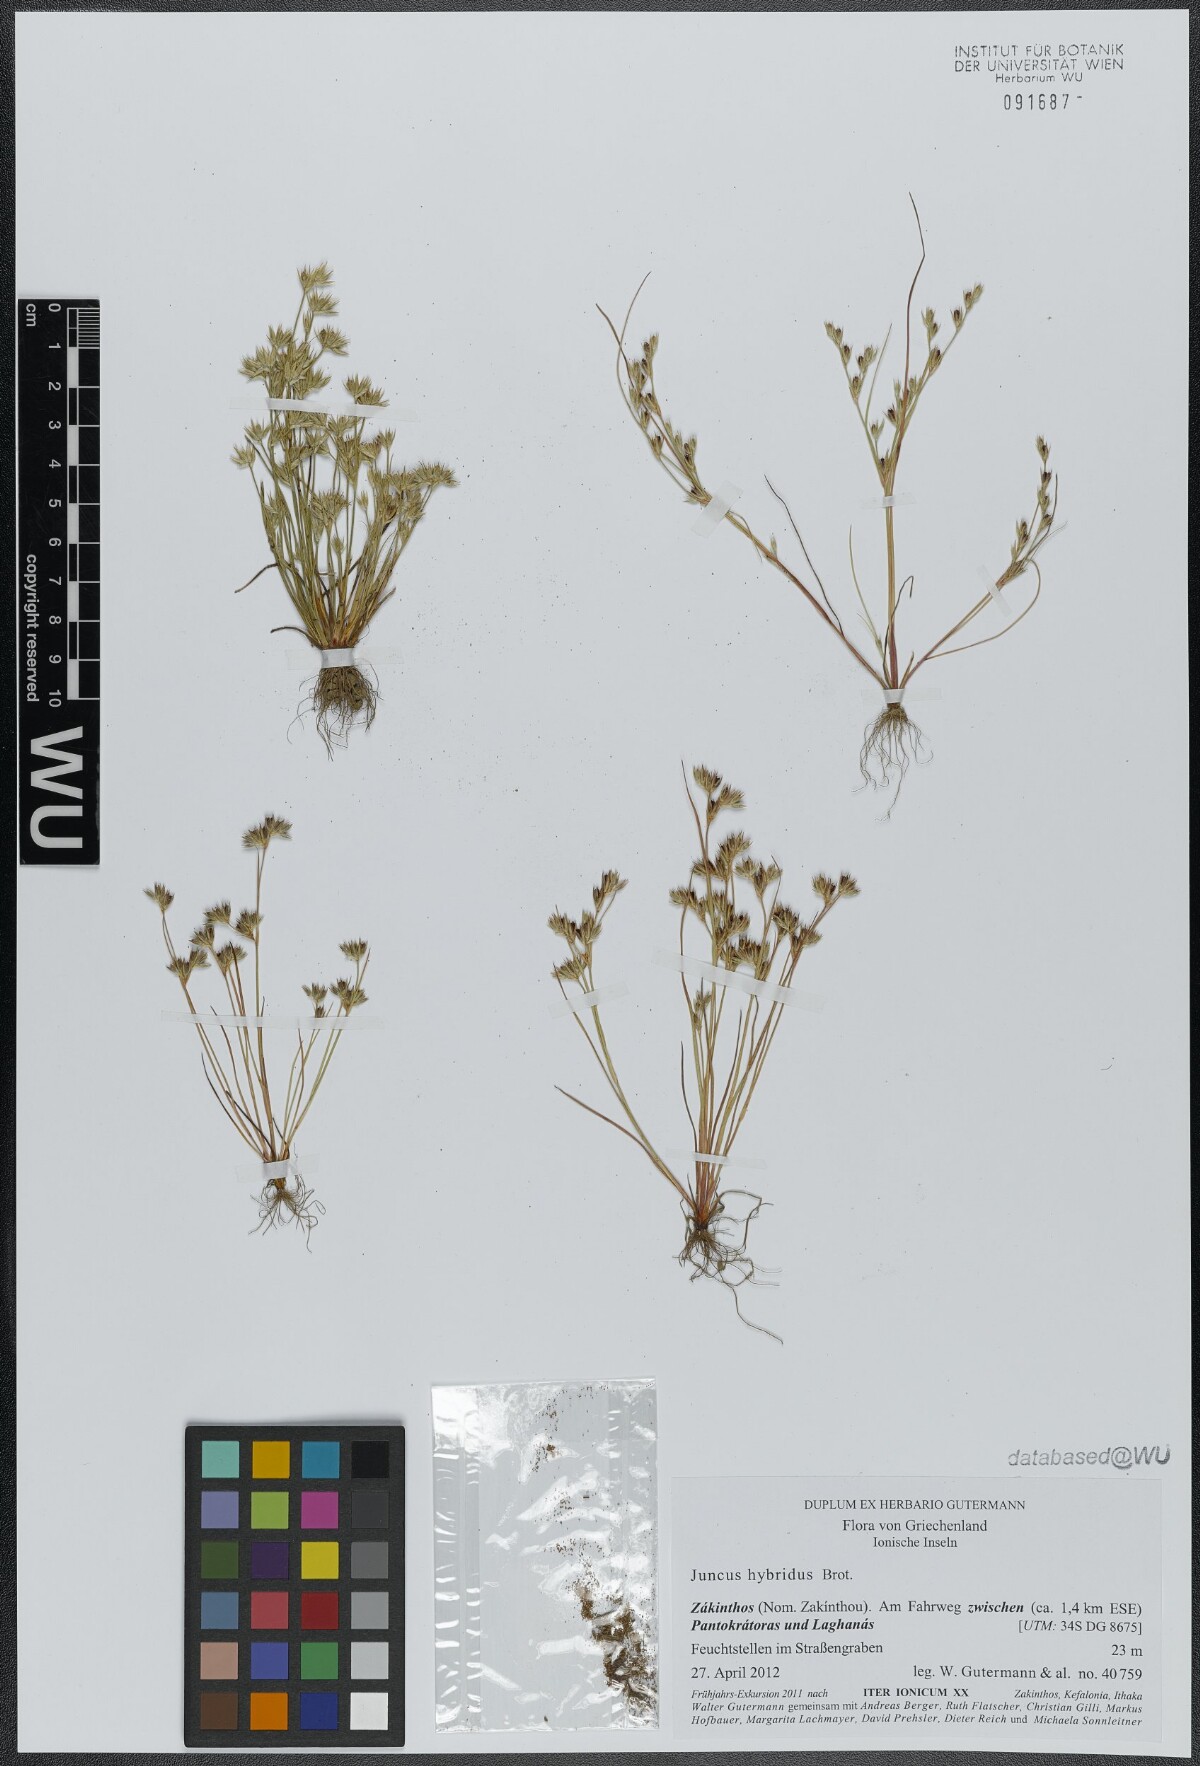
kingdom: Plantae
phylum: Tracheophyta
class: Liliopsida
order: Poales
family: Juncaceae
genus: Juncus
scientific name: Juncus hybridus
